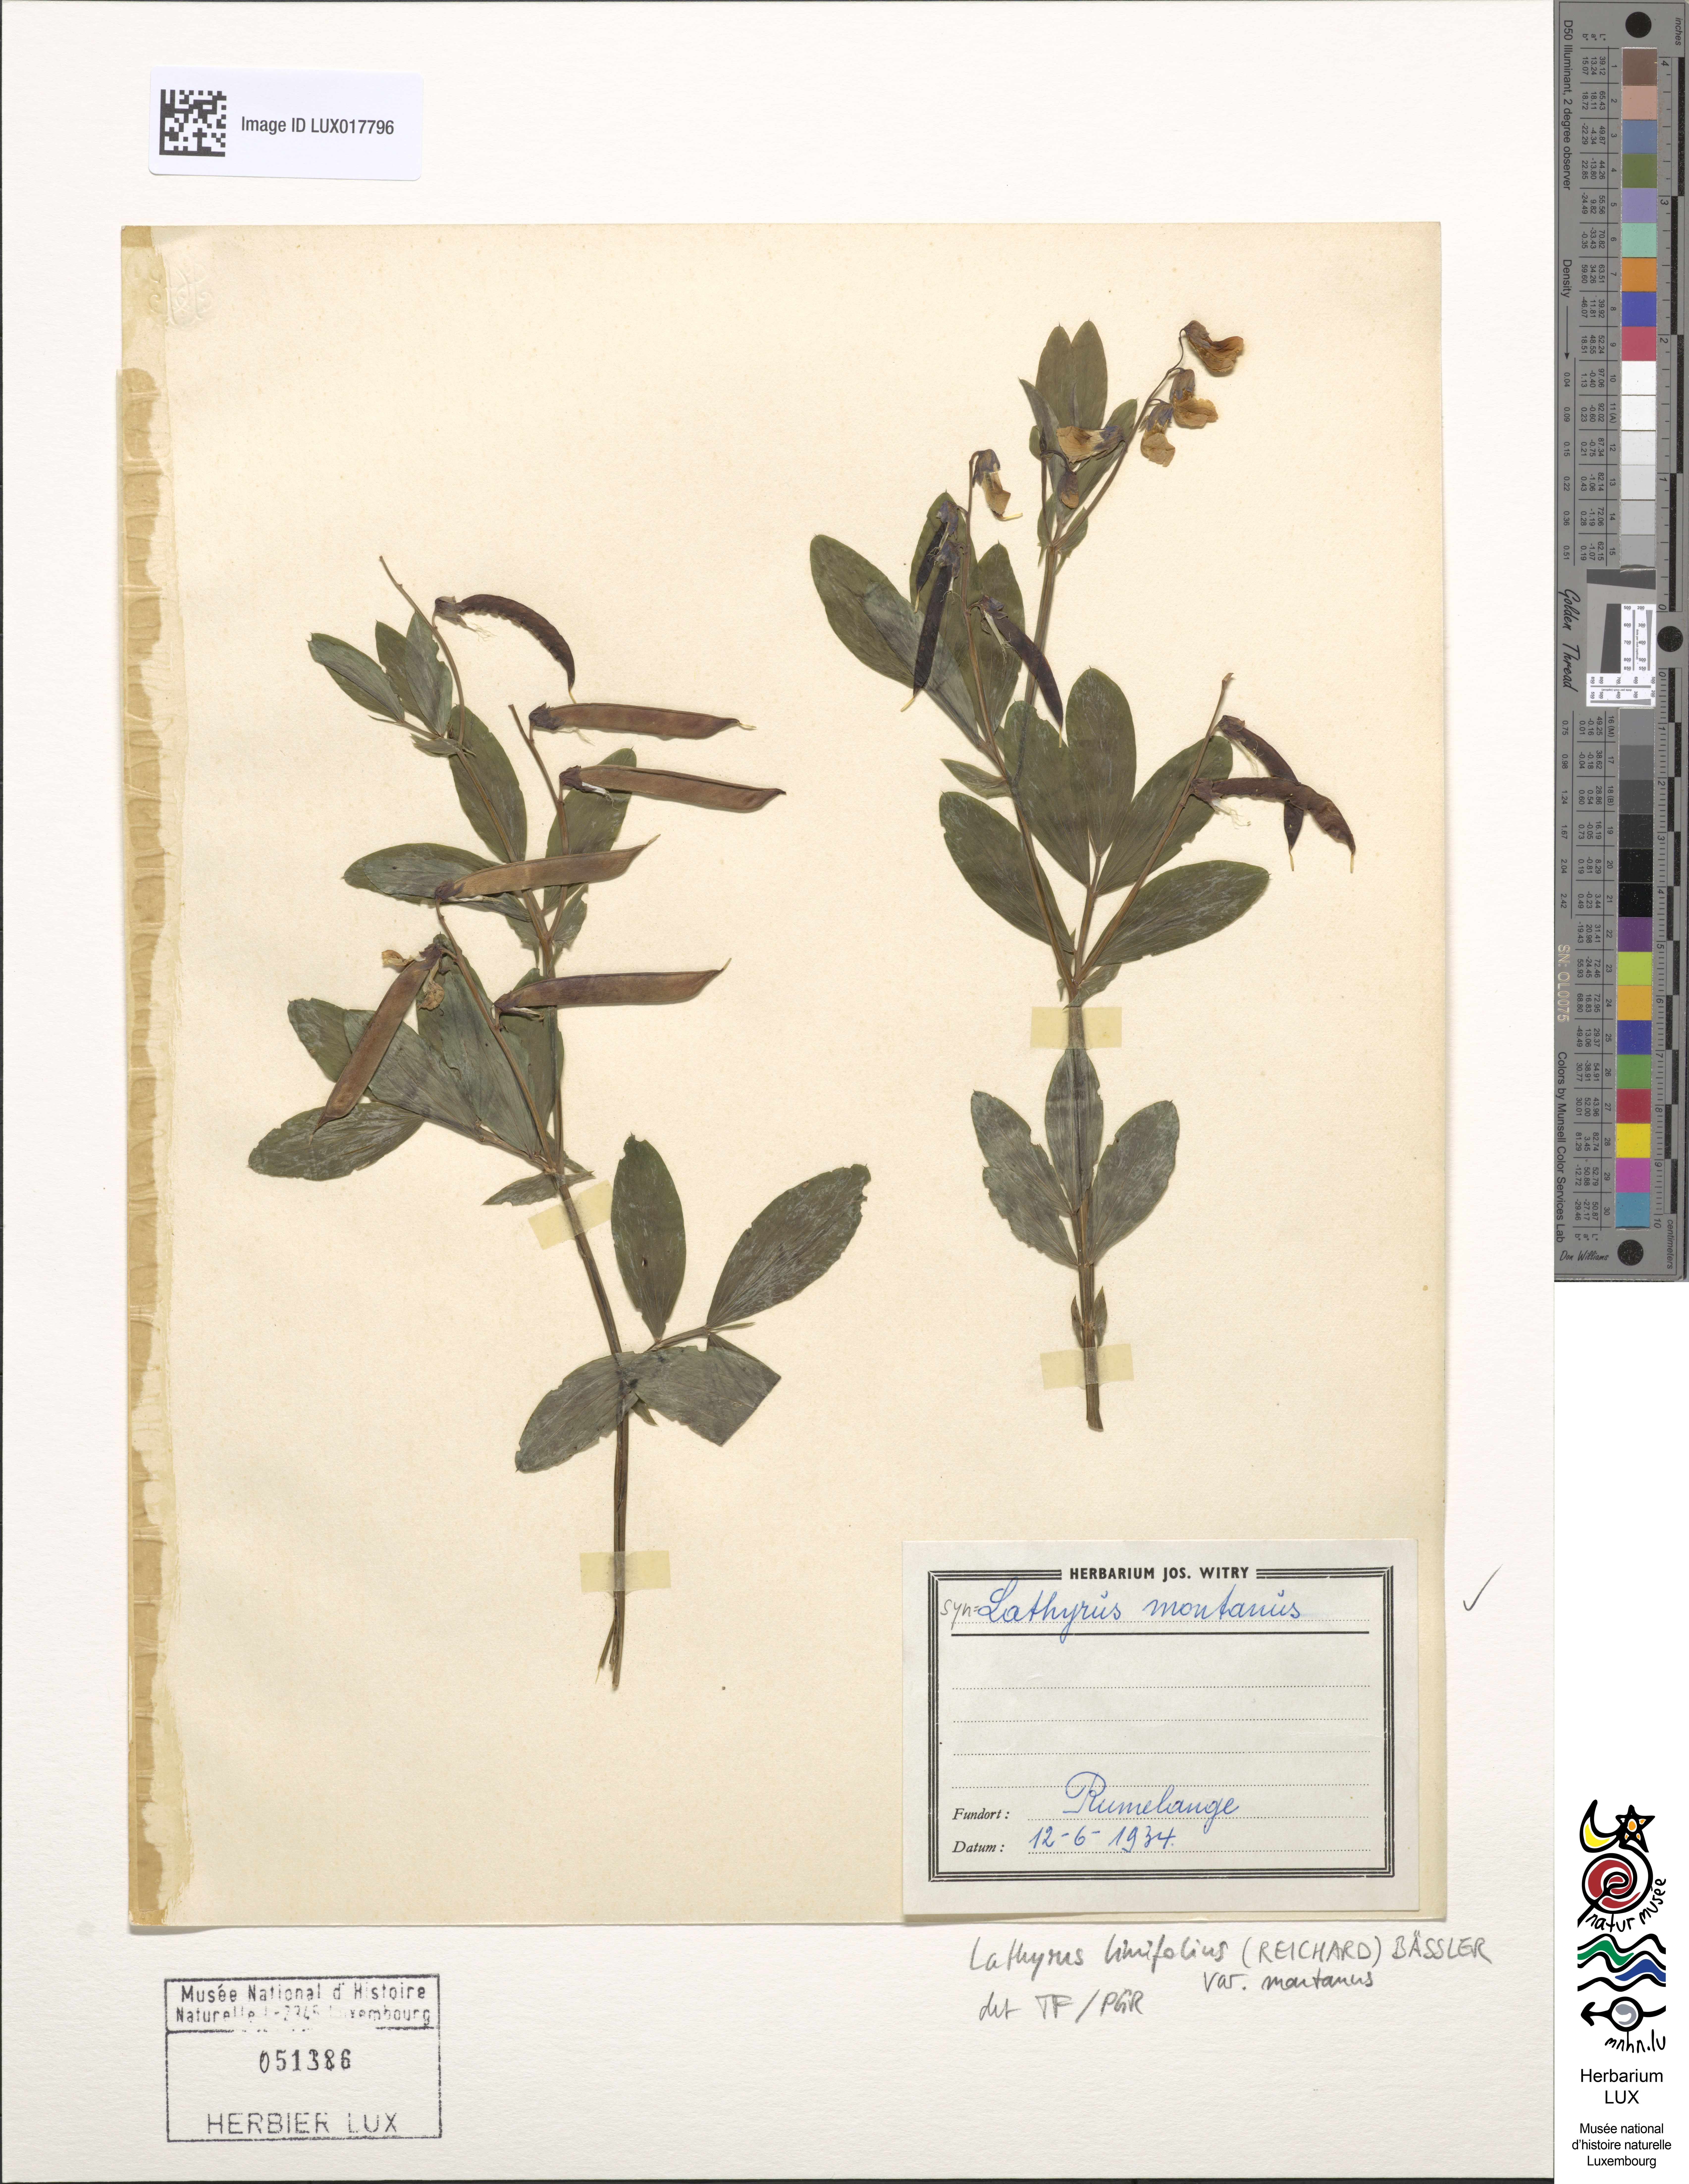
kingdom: Plantae
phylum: Tracheophyta
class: Magnoliopsida
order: Fabales
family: Fabaceae
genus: Lathyrus
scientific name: Lathyrus linifolius
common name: Bitter-vetch
